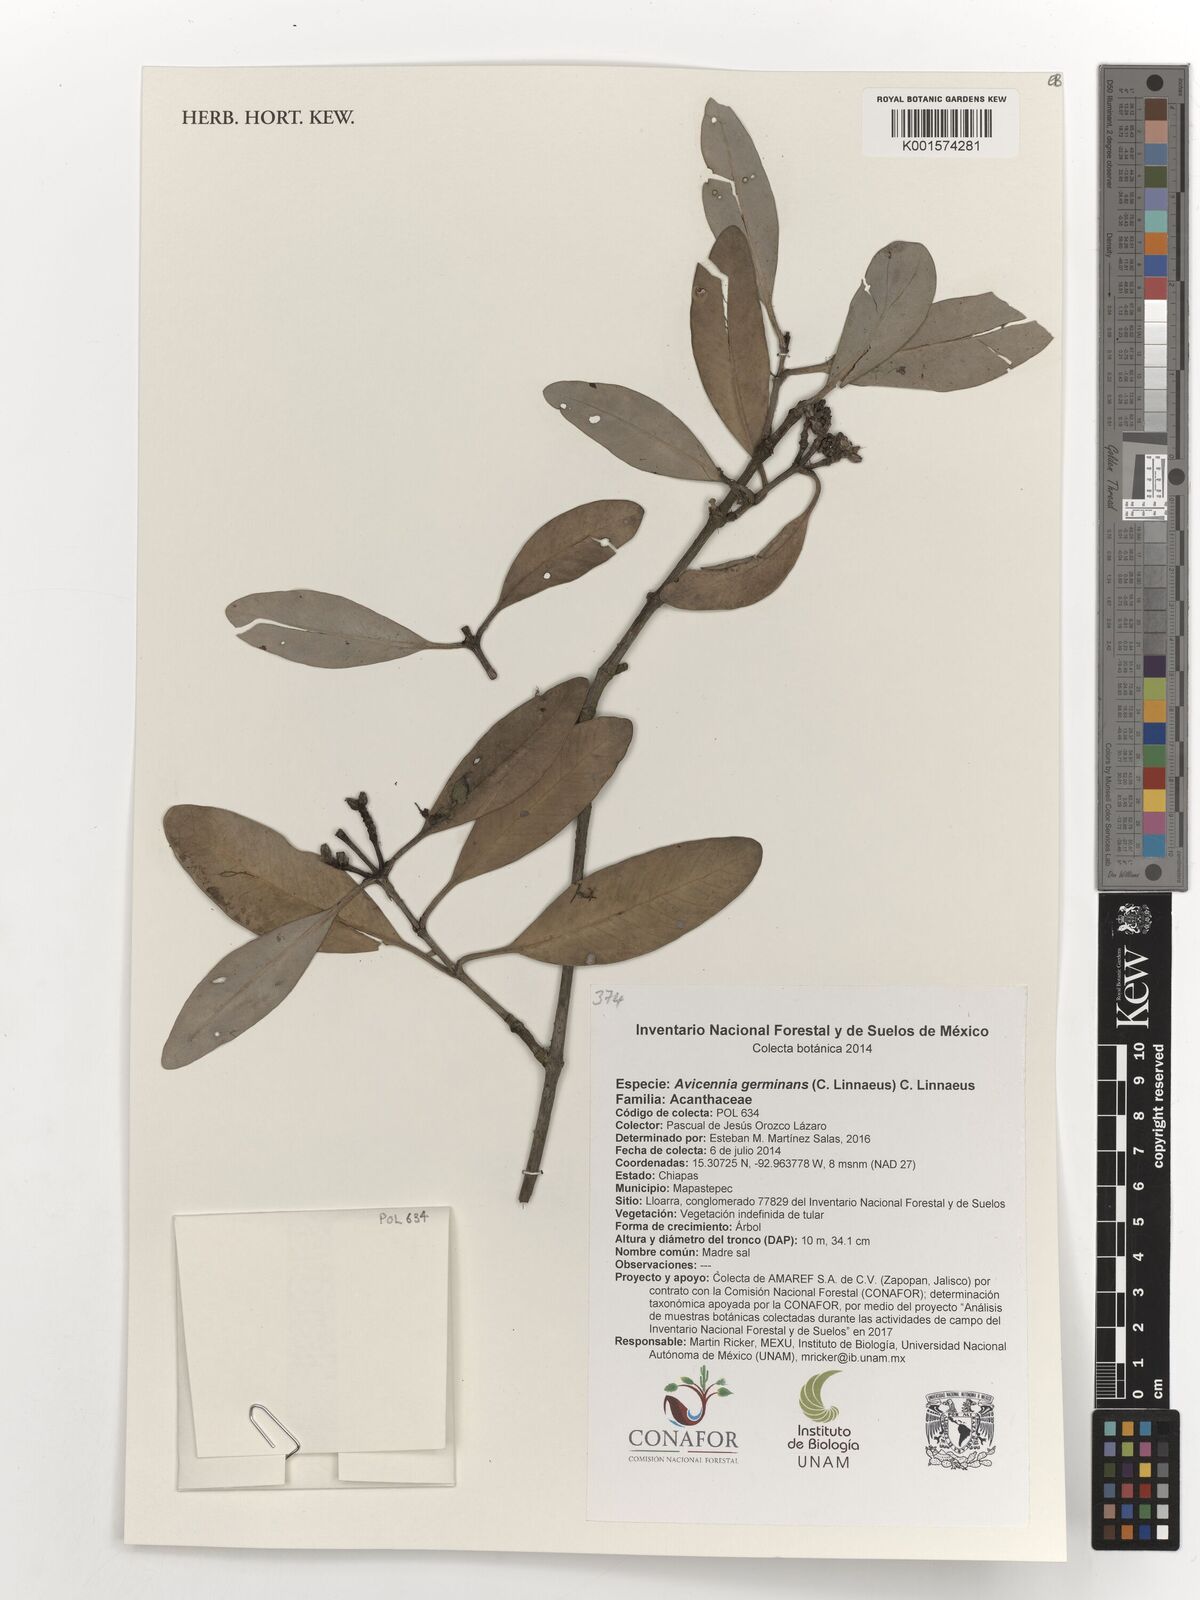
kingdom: Plantae
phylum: Tracheophyta
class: Magnoliopsida
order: Lamiales
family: Acanthaceae
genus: Avicennia
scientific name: Avicennia germinans
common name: Black mangrove
